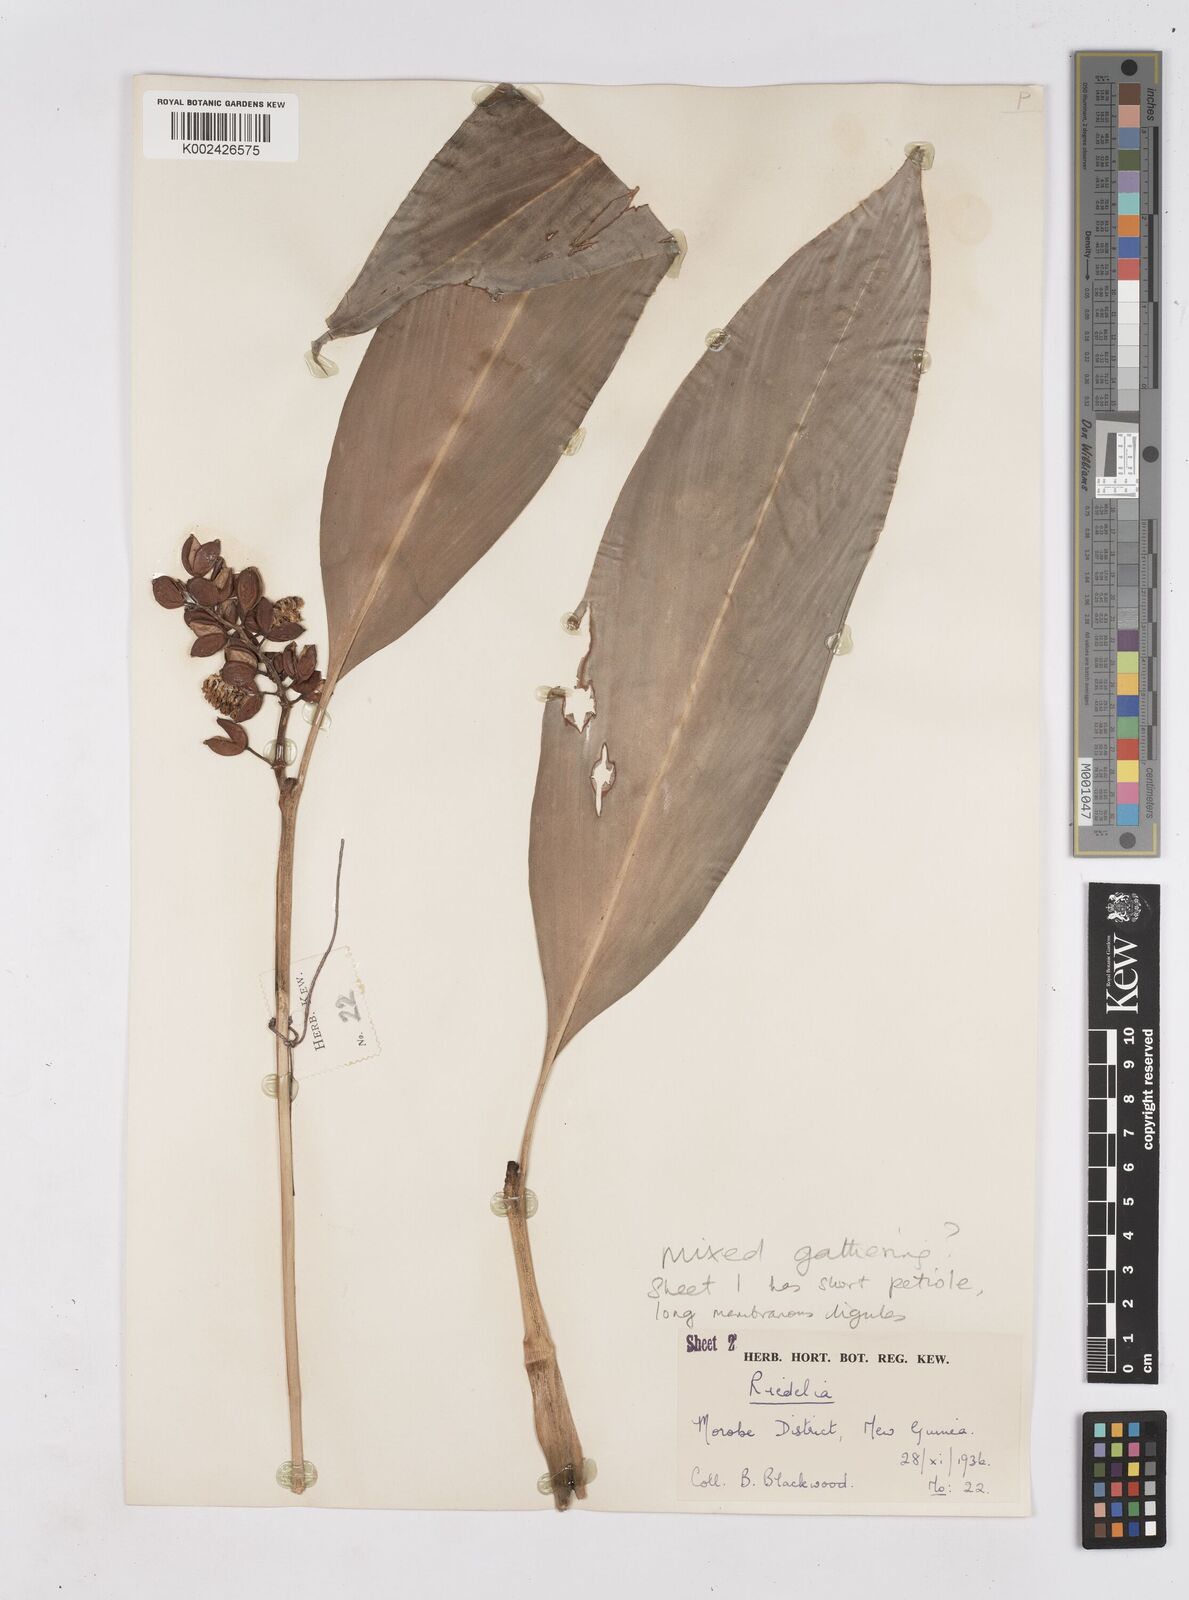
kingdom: Plantae
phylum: Tracheophyta
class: Liliopsida
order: Zingiberales
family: Zingiberaceae
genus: Riedelia
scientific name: Riedelia
